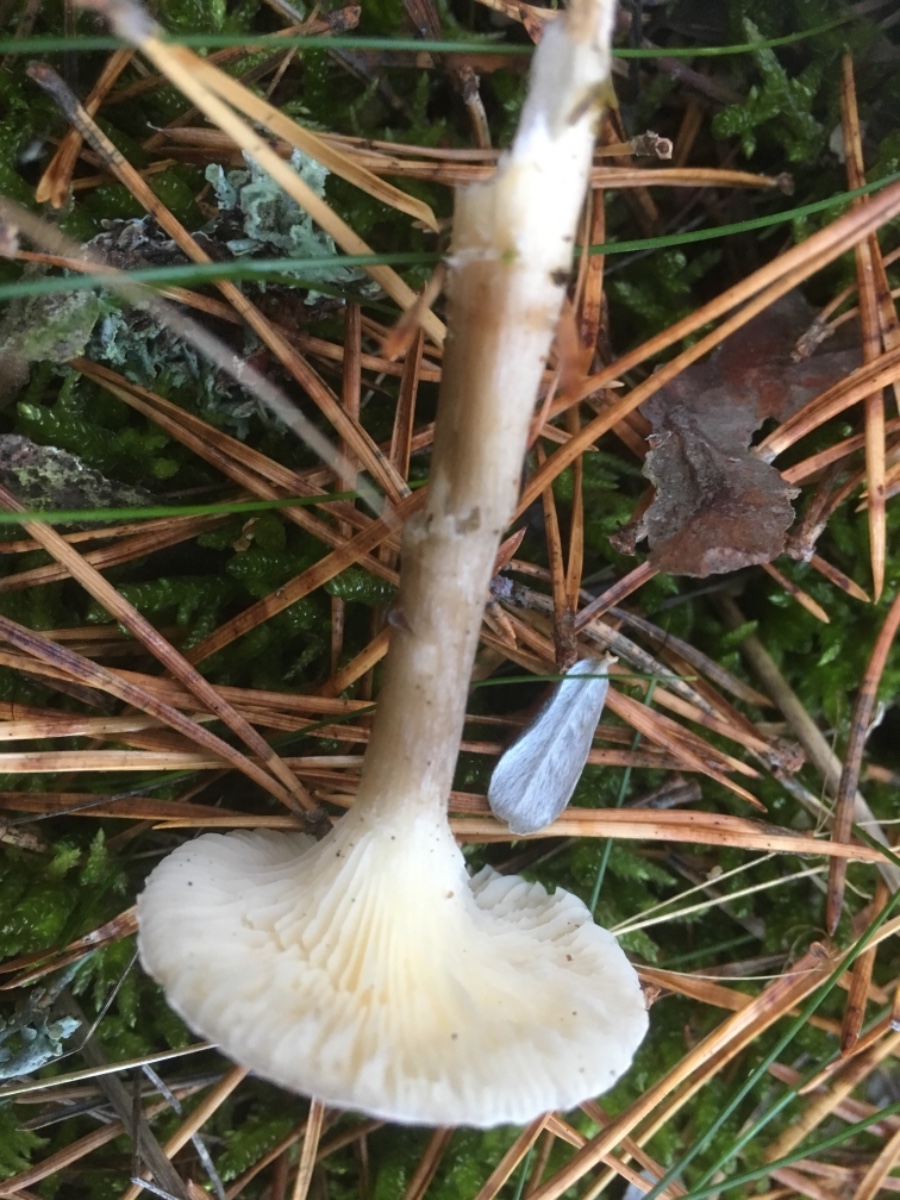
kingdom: Fungi
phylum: Basidiomycota
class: Agaricomycetes
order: Agaricales
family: Hygrophoraceae
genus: Ampulloclitocybe
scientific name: Ampulloclitocybe clavipes
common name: køllefod
